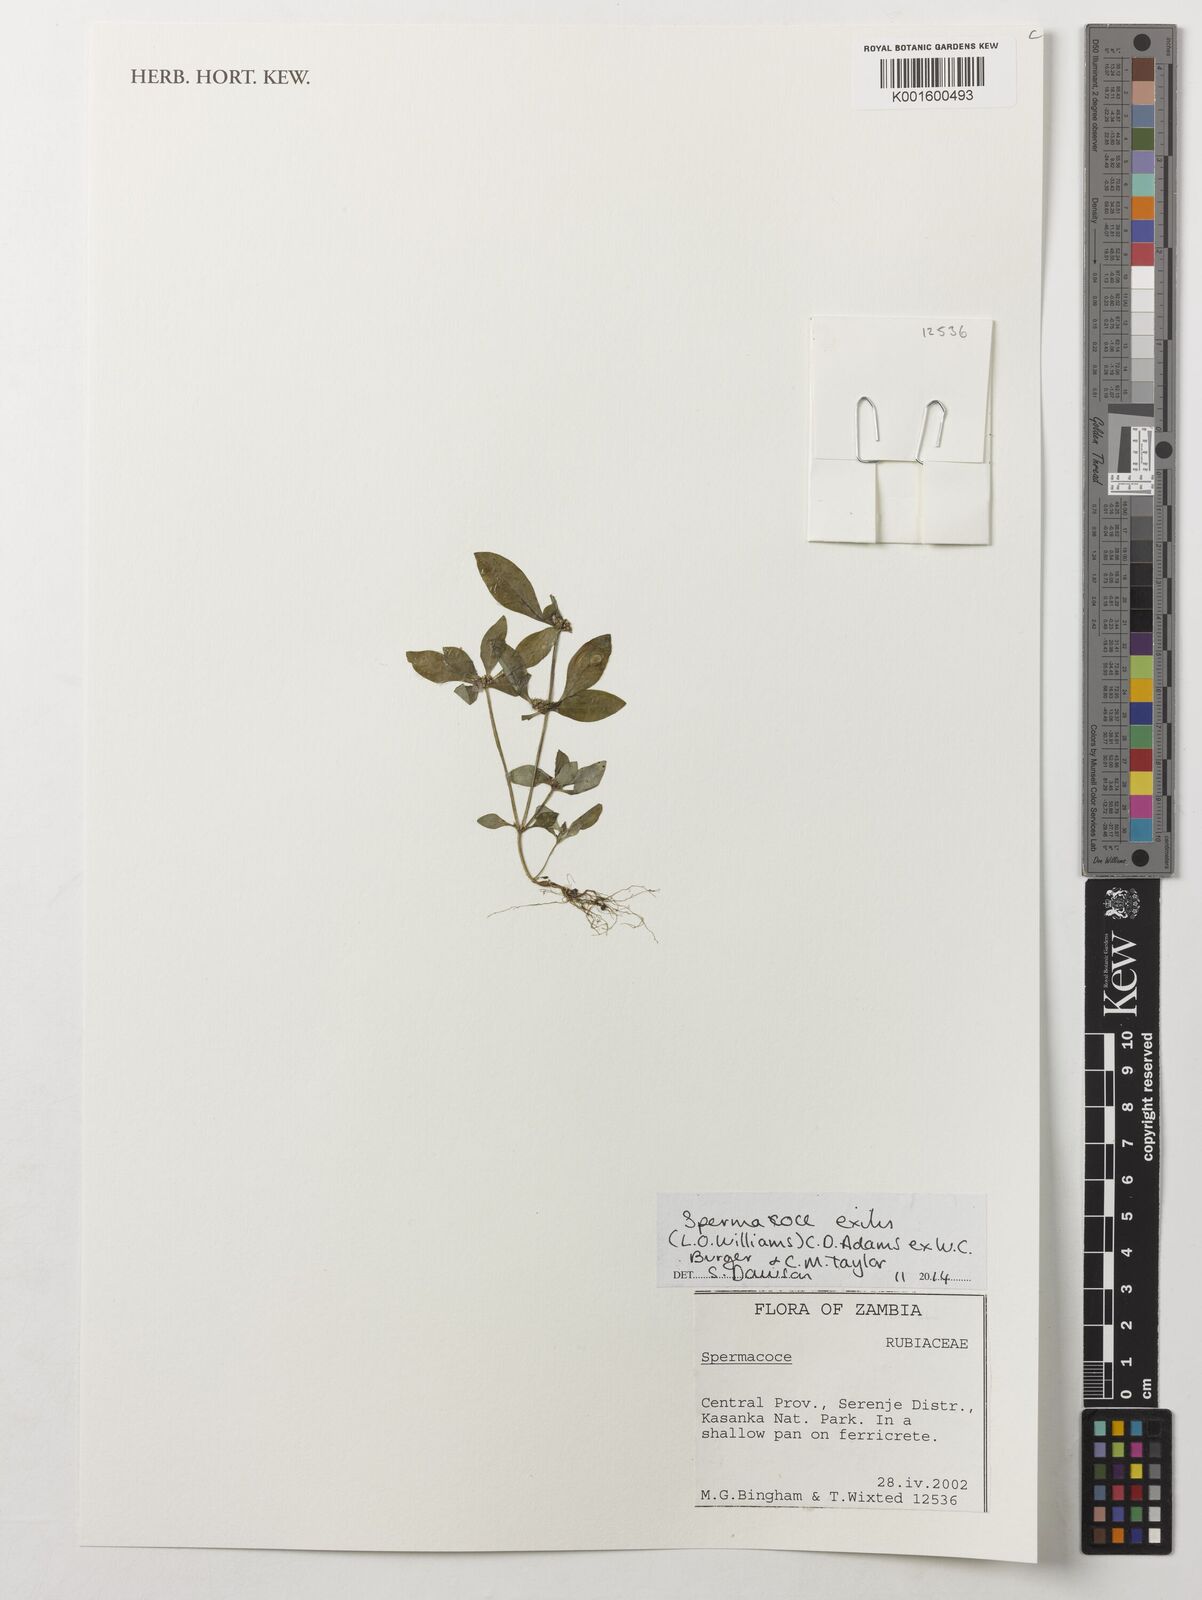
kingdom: Plantae
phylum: Tracheophyta
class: Magnoliopsida
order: Gentianales
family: Rubiaceae
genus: Spermacoce
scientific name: Spermacoce exilis
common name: Pacific false buttonweed
